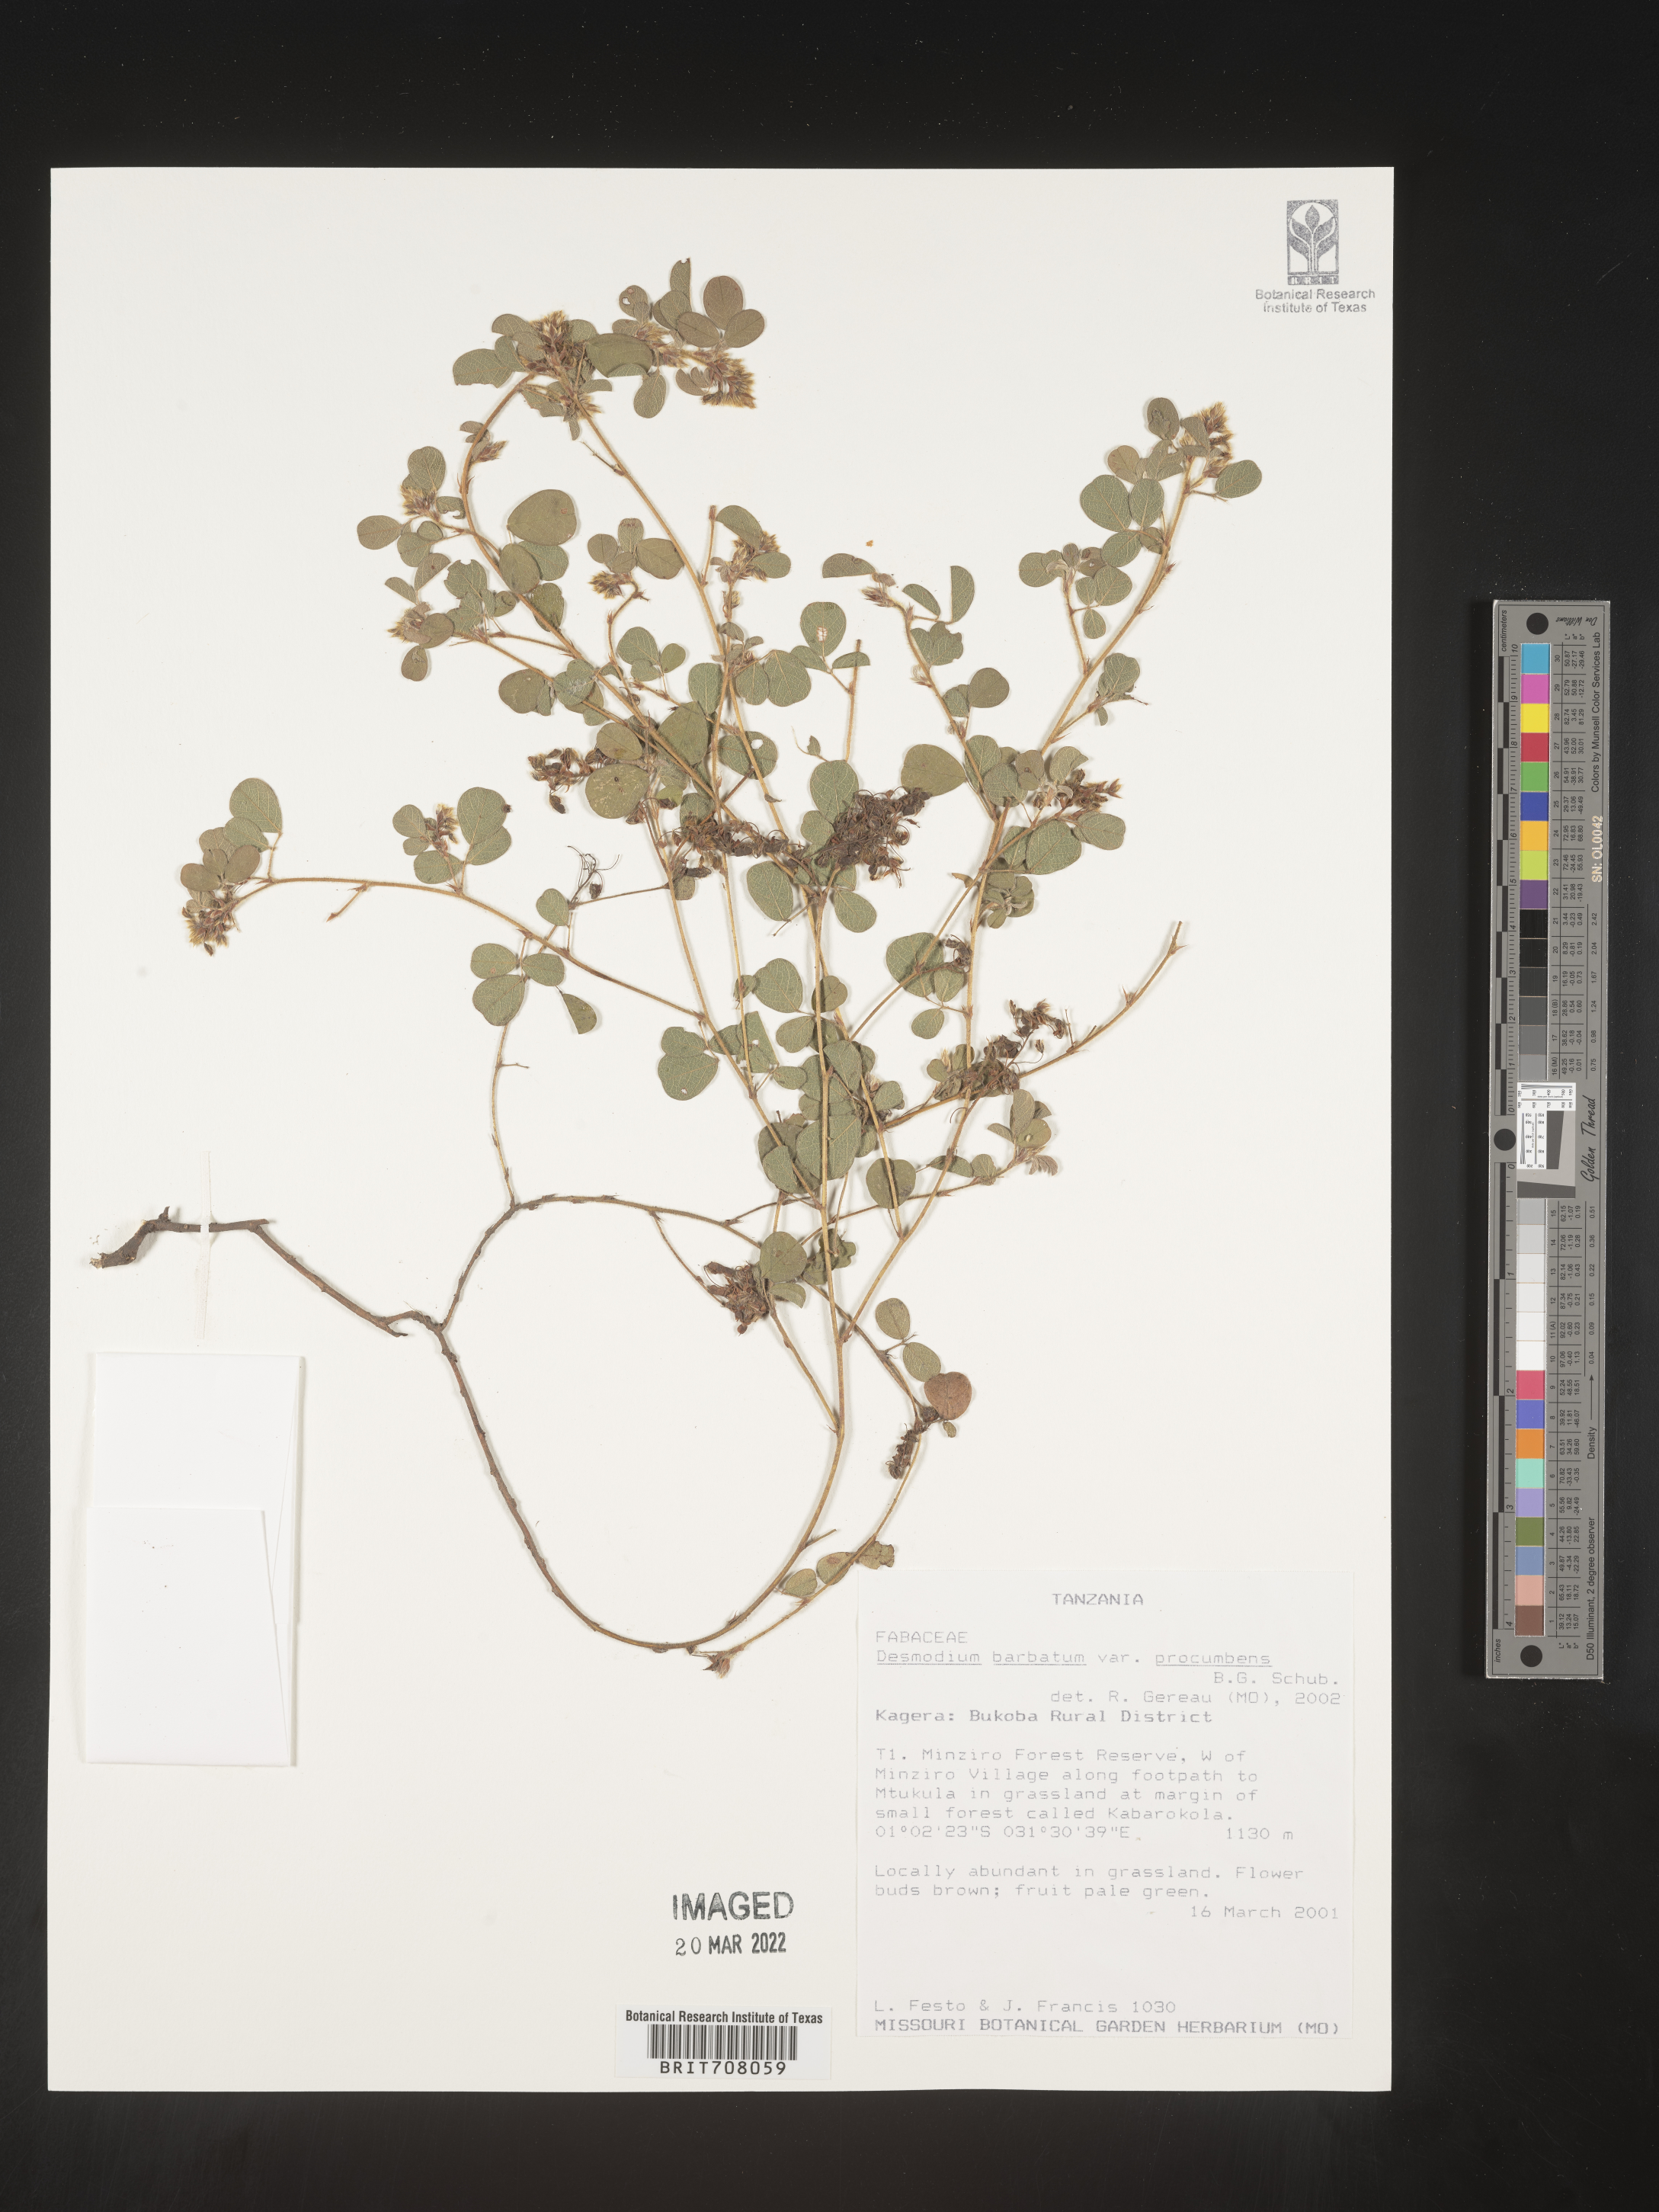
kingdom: Plantae
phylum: Tracheophyta
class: Magnoliopsida
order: Fabales
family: Fabaceae
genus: Desmodium
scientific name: Desmodium
